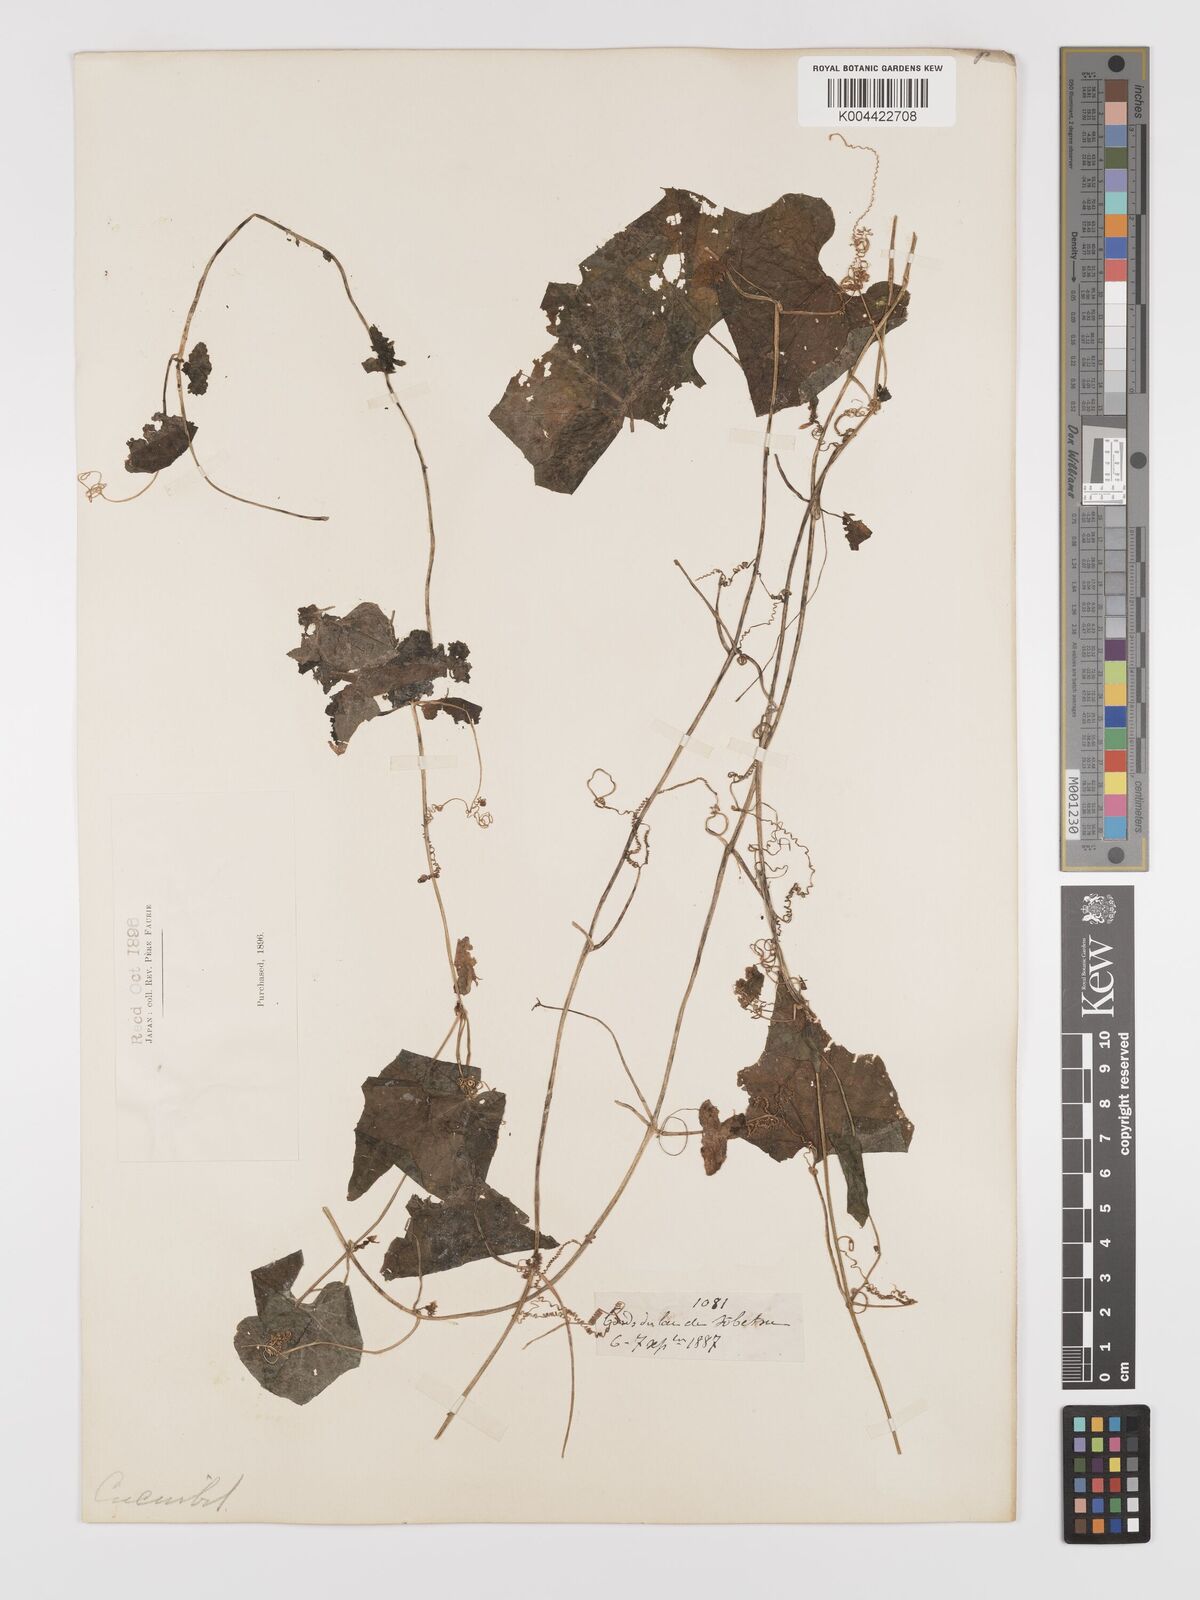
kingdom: Plantae
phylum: Tracheophyta
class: Magnoliopsida
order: Cucurbitales
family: Cucurbitaceae
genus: Schizopepon
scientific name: Schizopepon bryoniifolius
